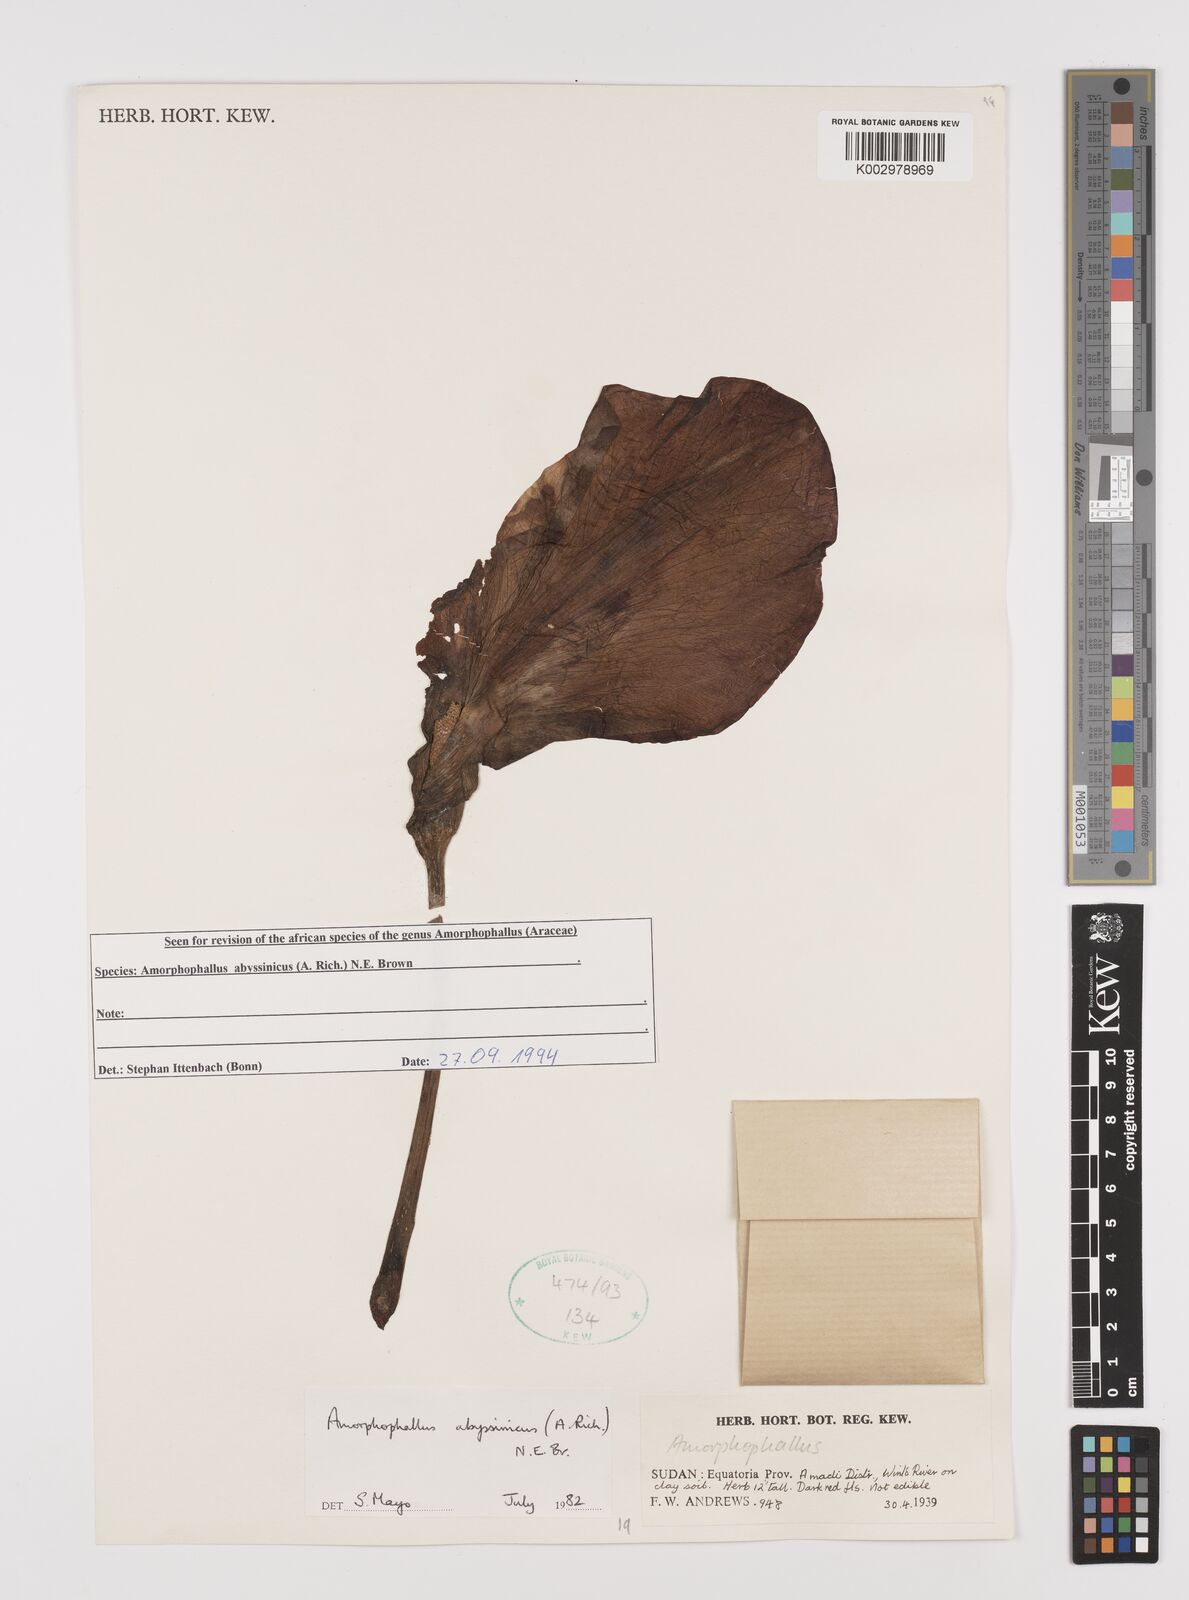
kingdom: Plantae
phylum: Tracheophyta
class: Liliopsida
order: Alismatales
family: Araceae
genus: Amorphophallus
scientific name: Amorphophallus abyssinicus
